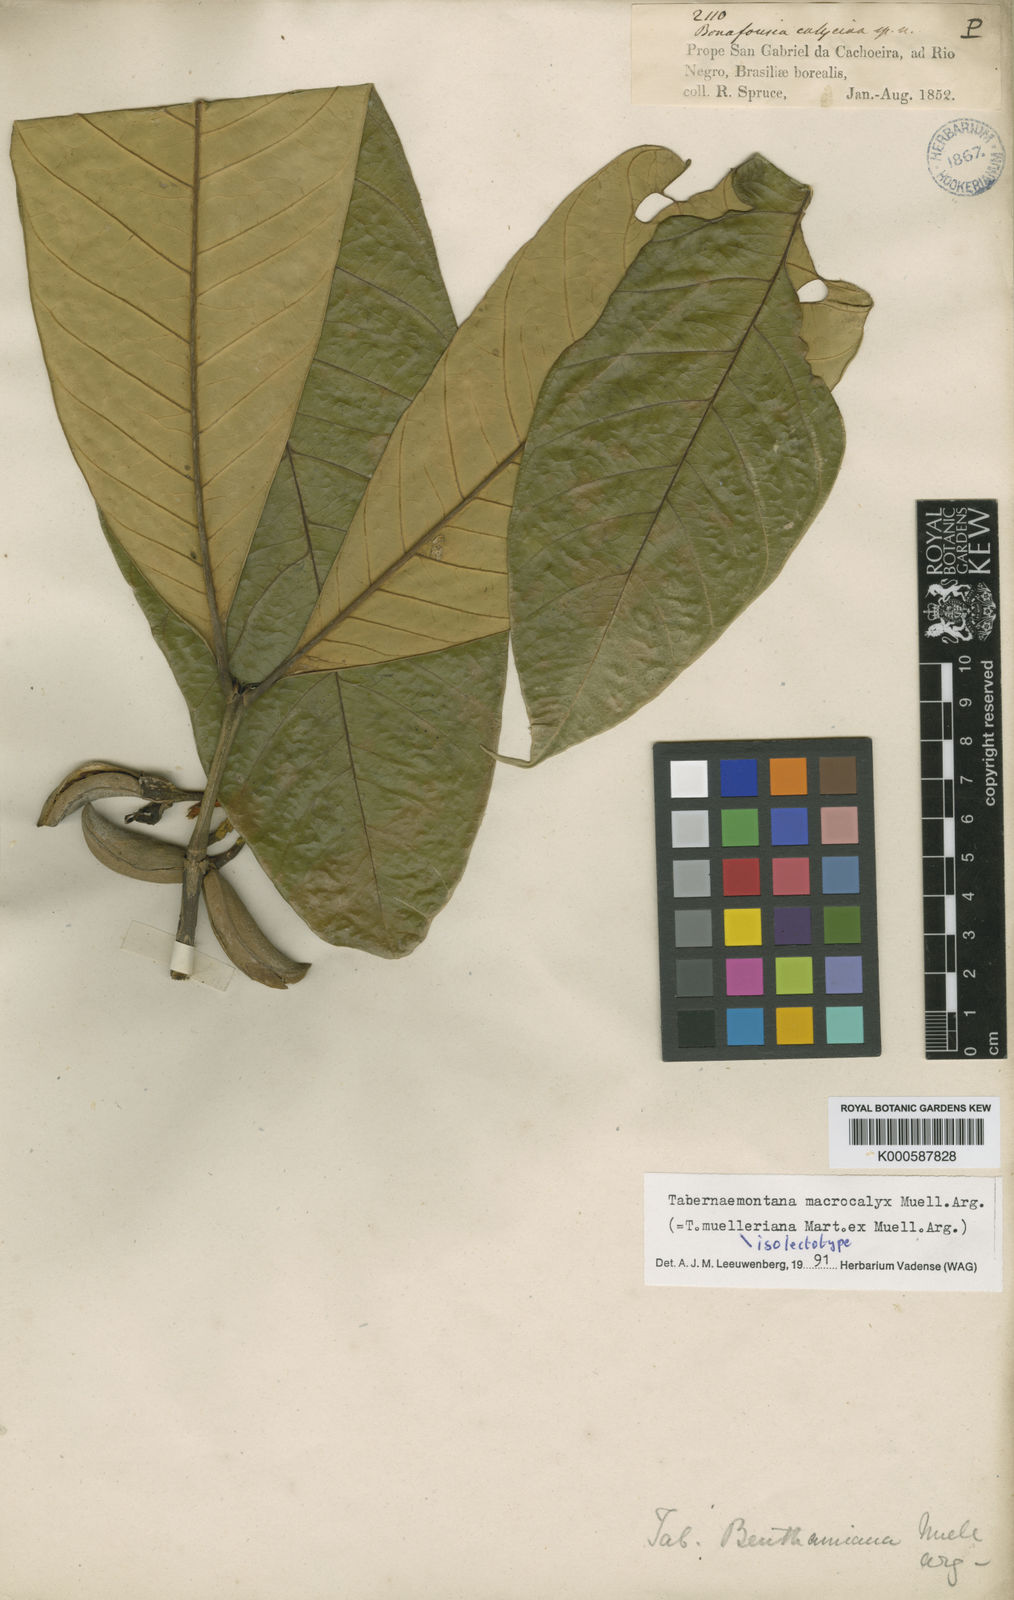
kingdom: Plantae
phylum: Tracheophyta
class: Magnoliopsida
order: Gentianales
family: Apocynaceae
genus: Tabernaemontana
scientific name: Tabernaemontana
